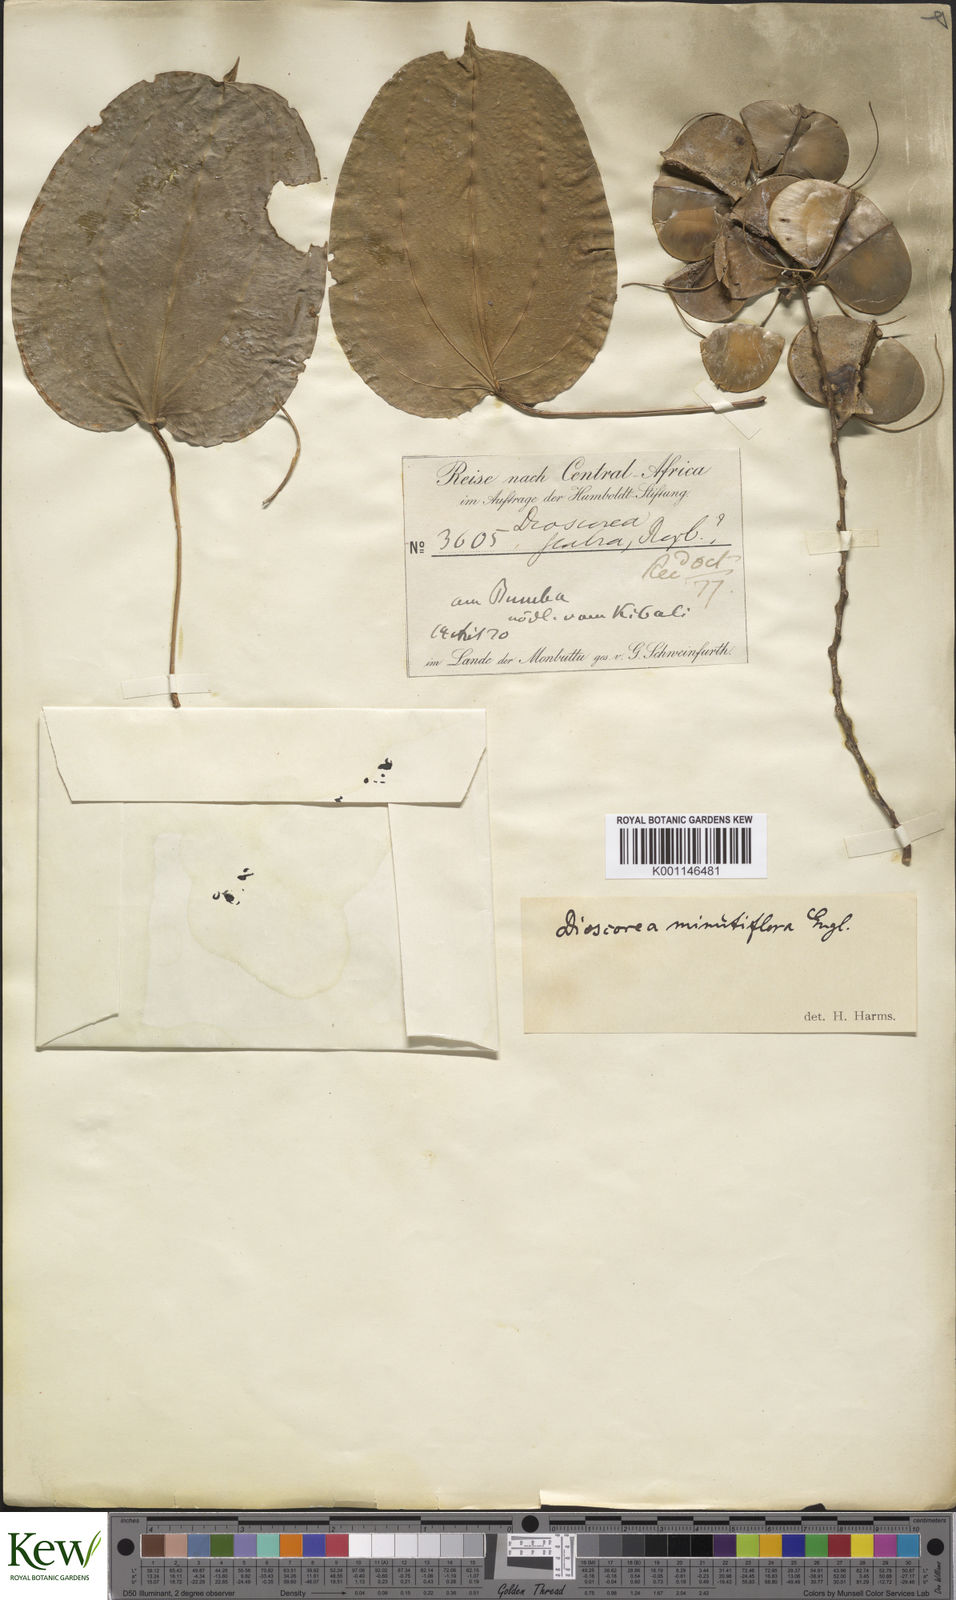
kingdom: Plantae
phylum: Tracheophyta
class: Liliopsida
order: Dioscoreales
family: Dioscoreaceae
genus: Dioscorea
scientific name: Dioscorea minutiflora
